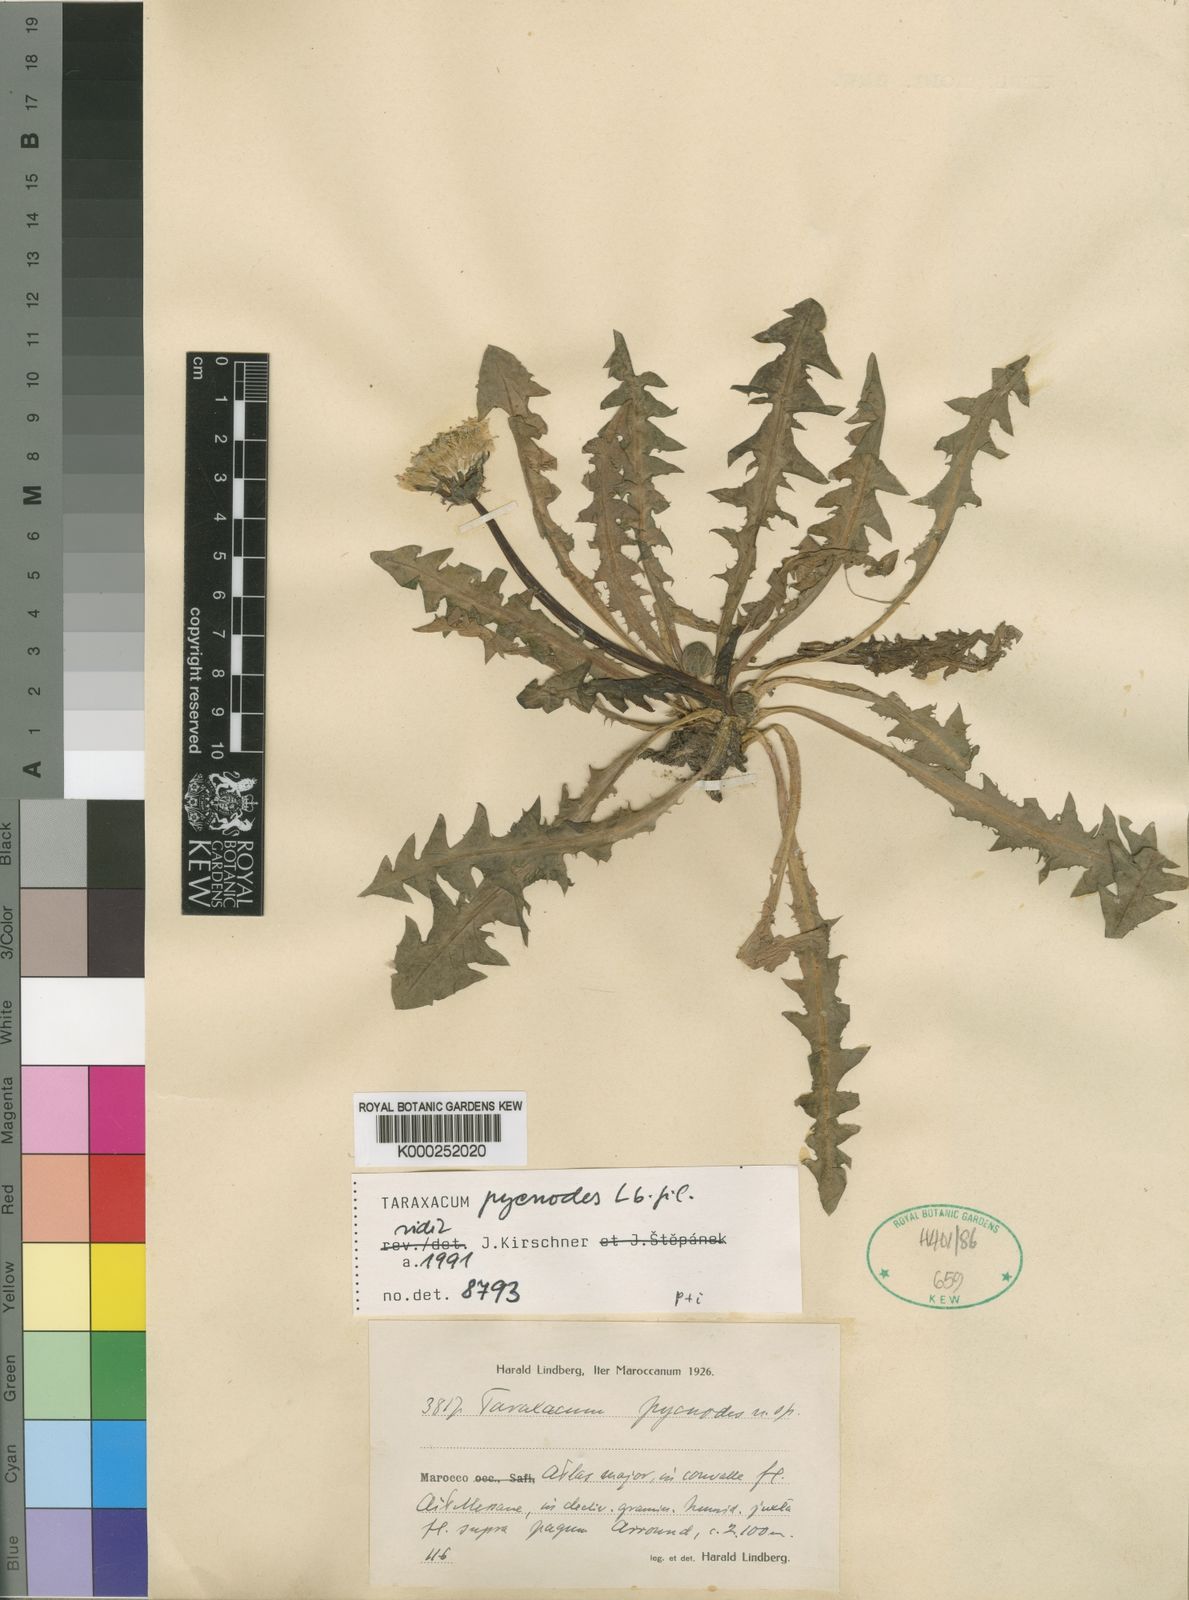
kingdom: Plantae
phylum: Tracheophyta
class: Magnoliopsida
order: Asterales
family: Asteraceae
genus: Taraxacum
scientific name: Taraxacum atlanticum
